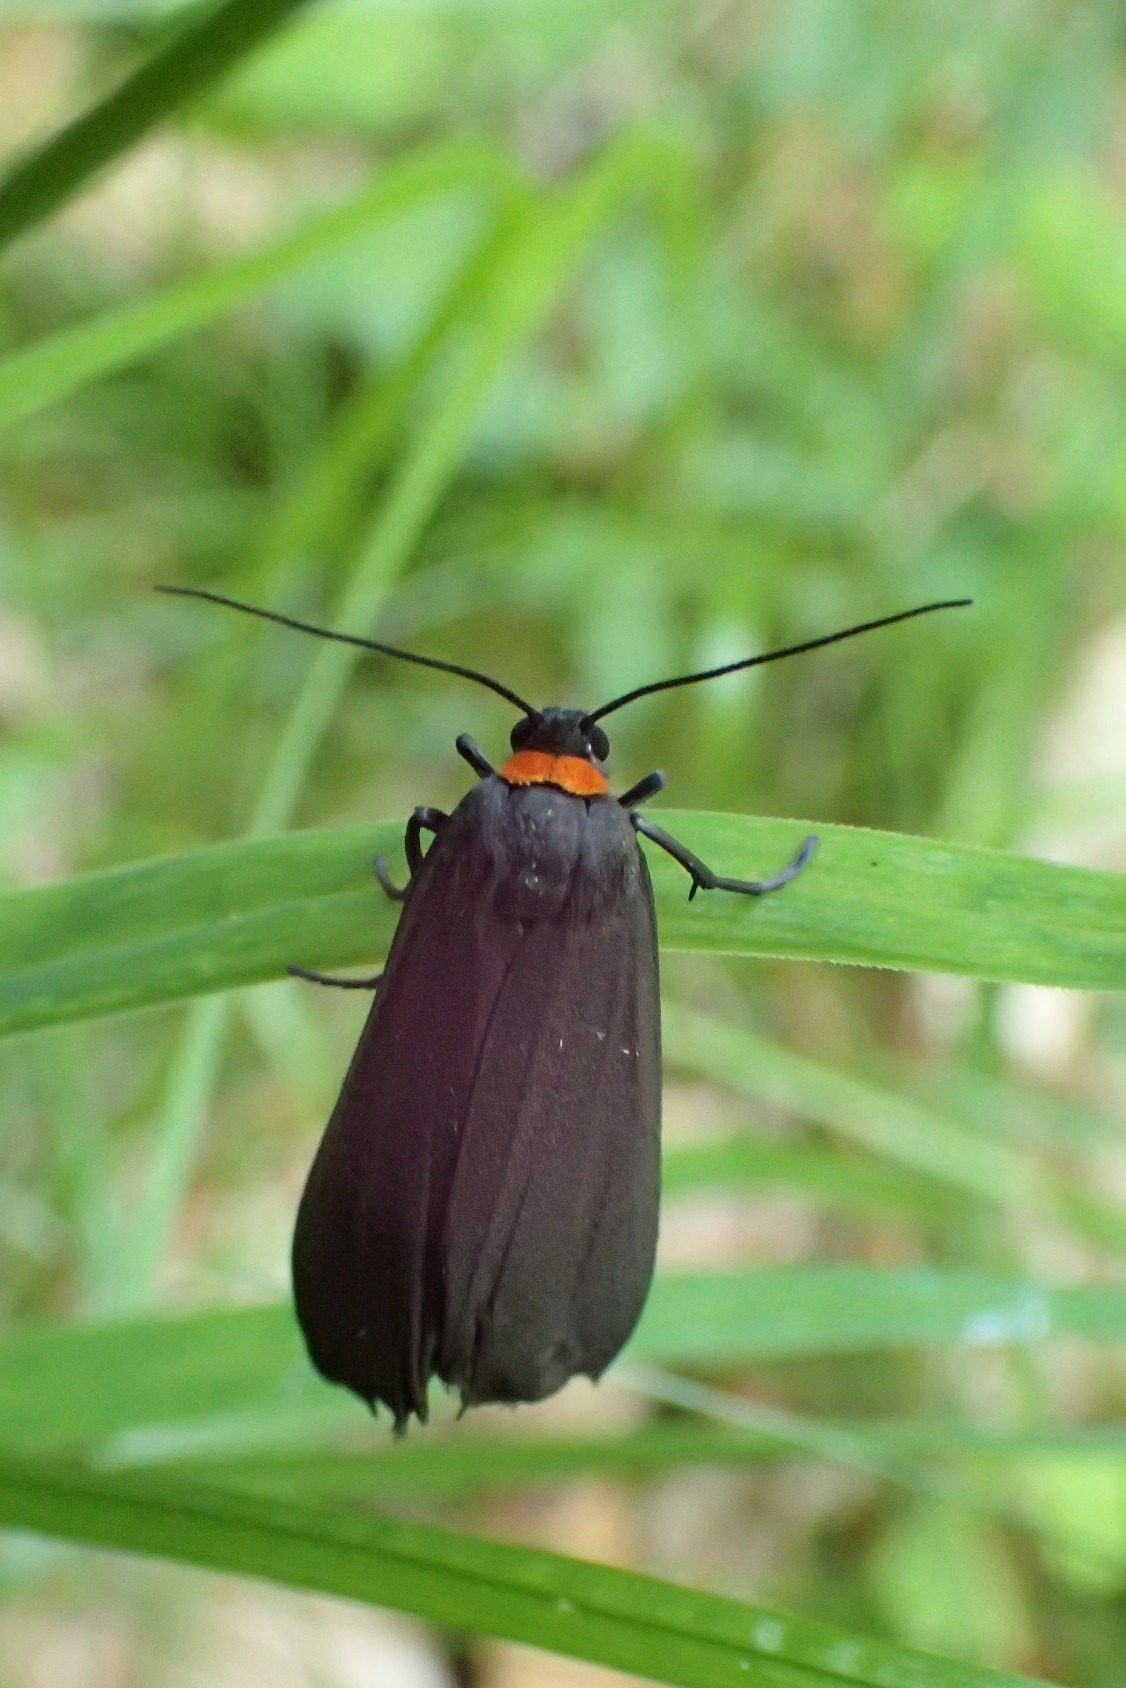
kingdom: Animalia
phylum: Arthropoda
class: Insecta
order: Lepidoptera
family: Erebidae
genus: Atolmis
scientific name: Atolmis rubricollis
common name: Blodnakke
